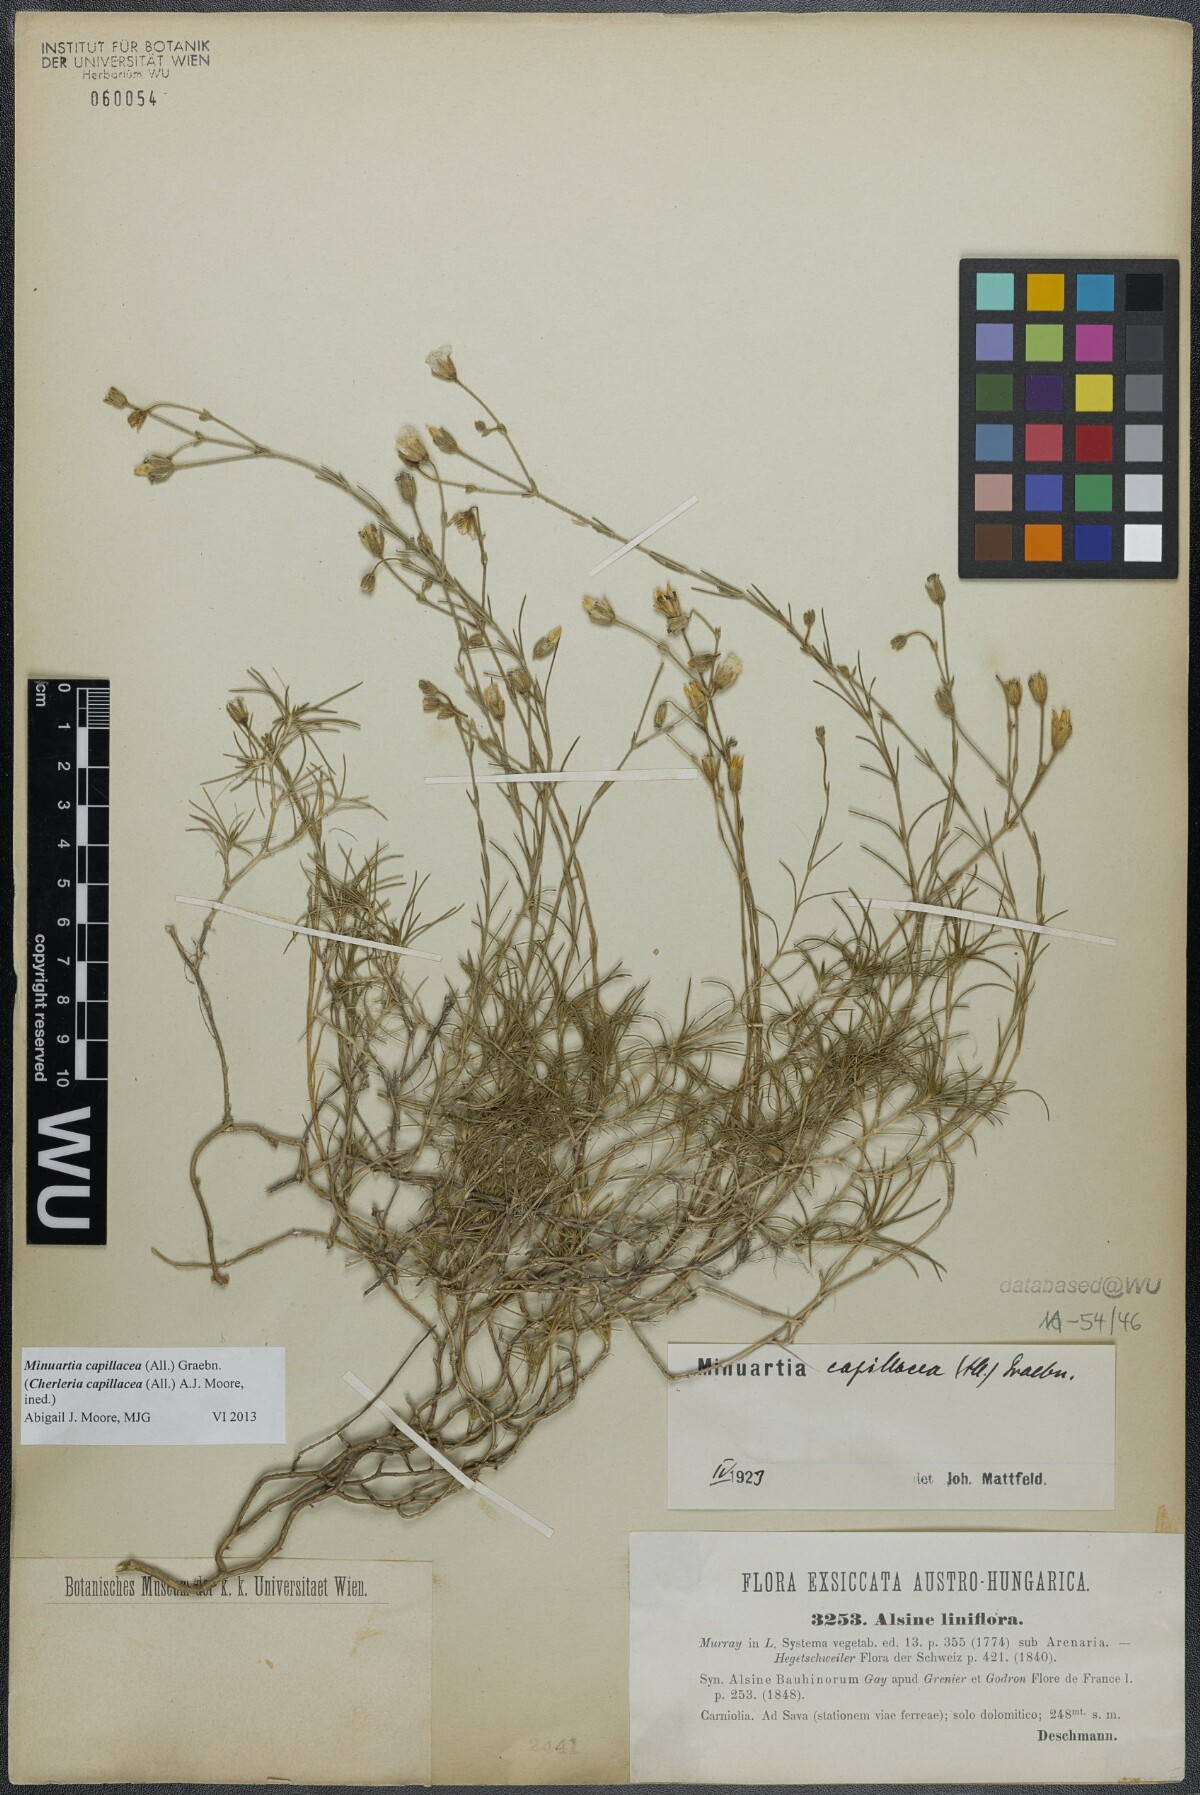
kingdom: Plantae
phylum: Tracheophyta
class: Magnoliopsida
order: Caryophyllales
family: Caryophyllaceae
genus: Cherleria
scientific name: Cherleria capillacea
